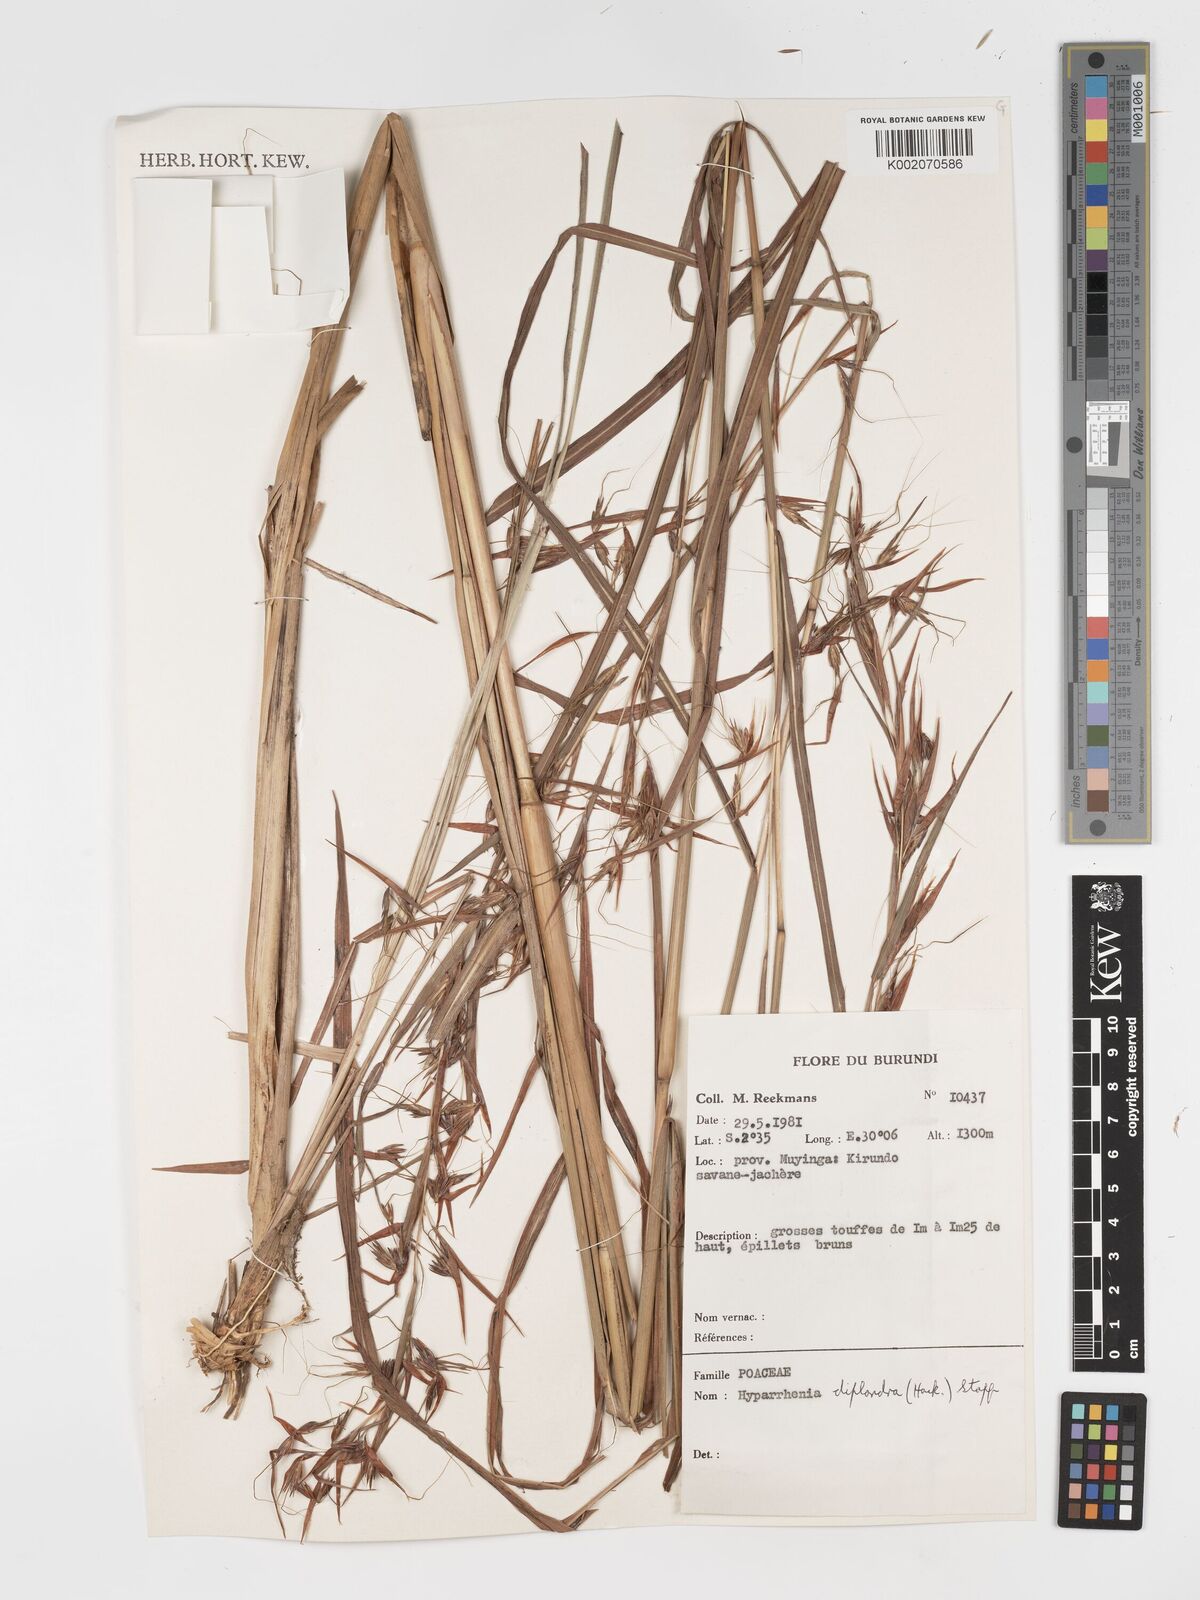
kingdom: Plantae
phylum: Tracheophyta
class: Liliopsida
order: Poales
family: Poaceae
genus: Hyparrhenia
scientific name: Hyparrhenia diplandra
